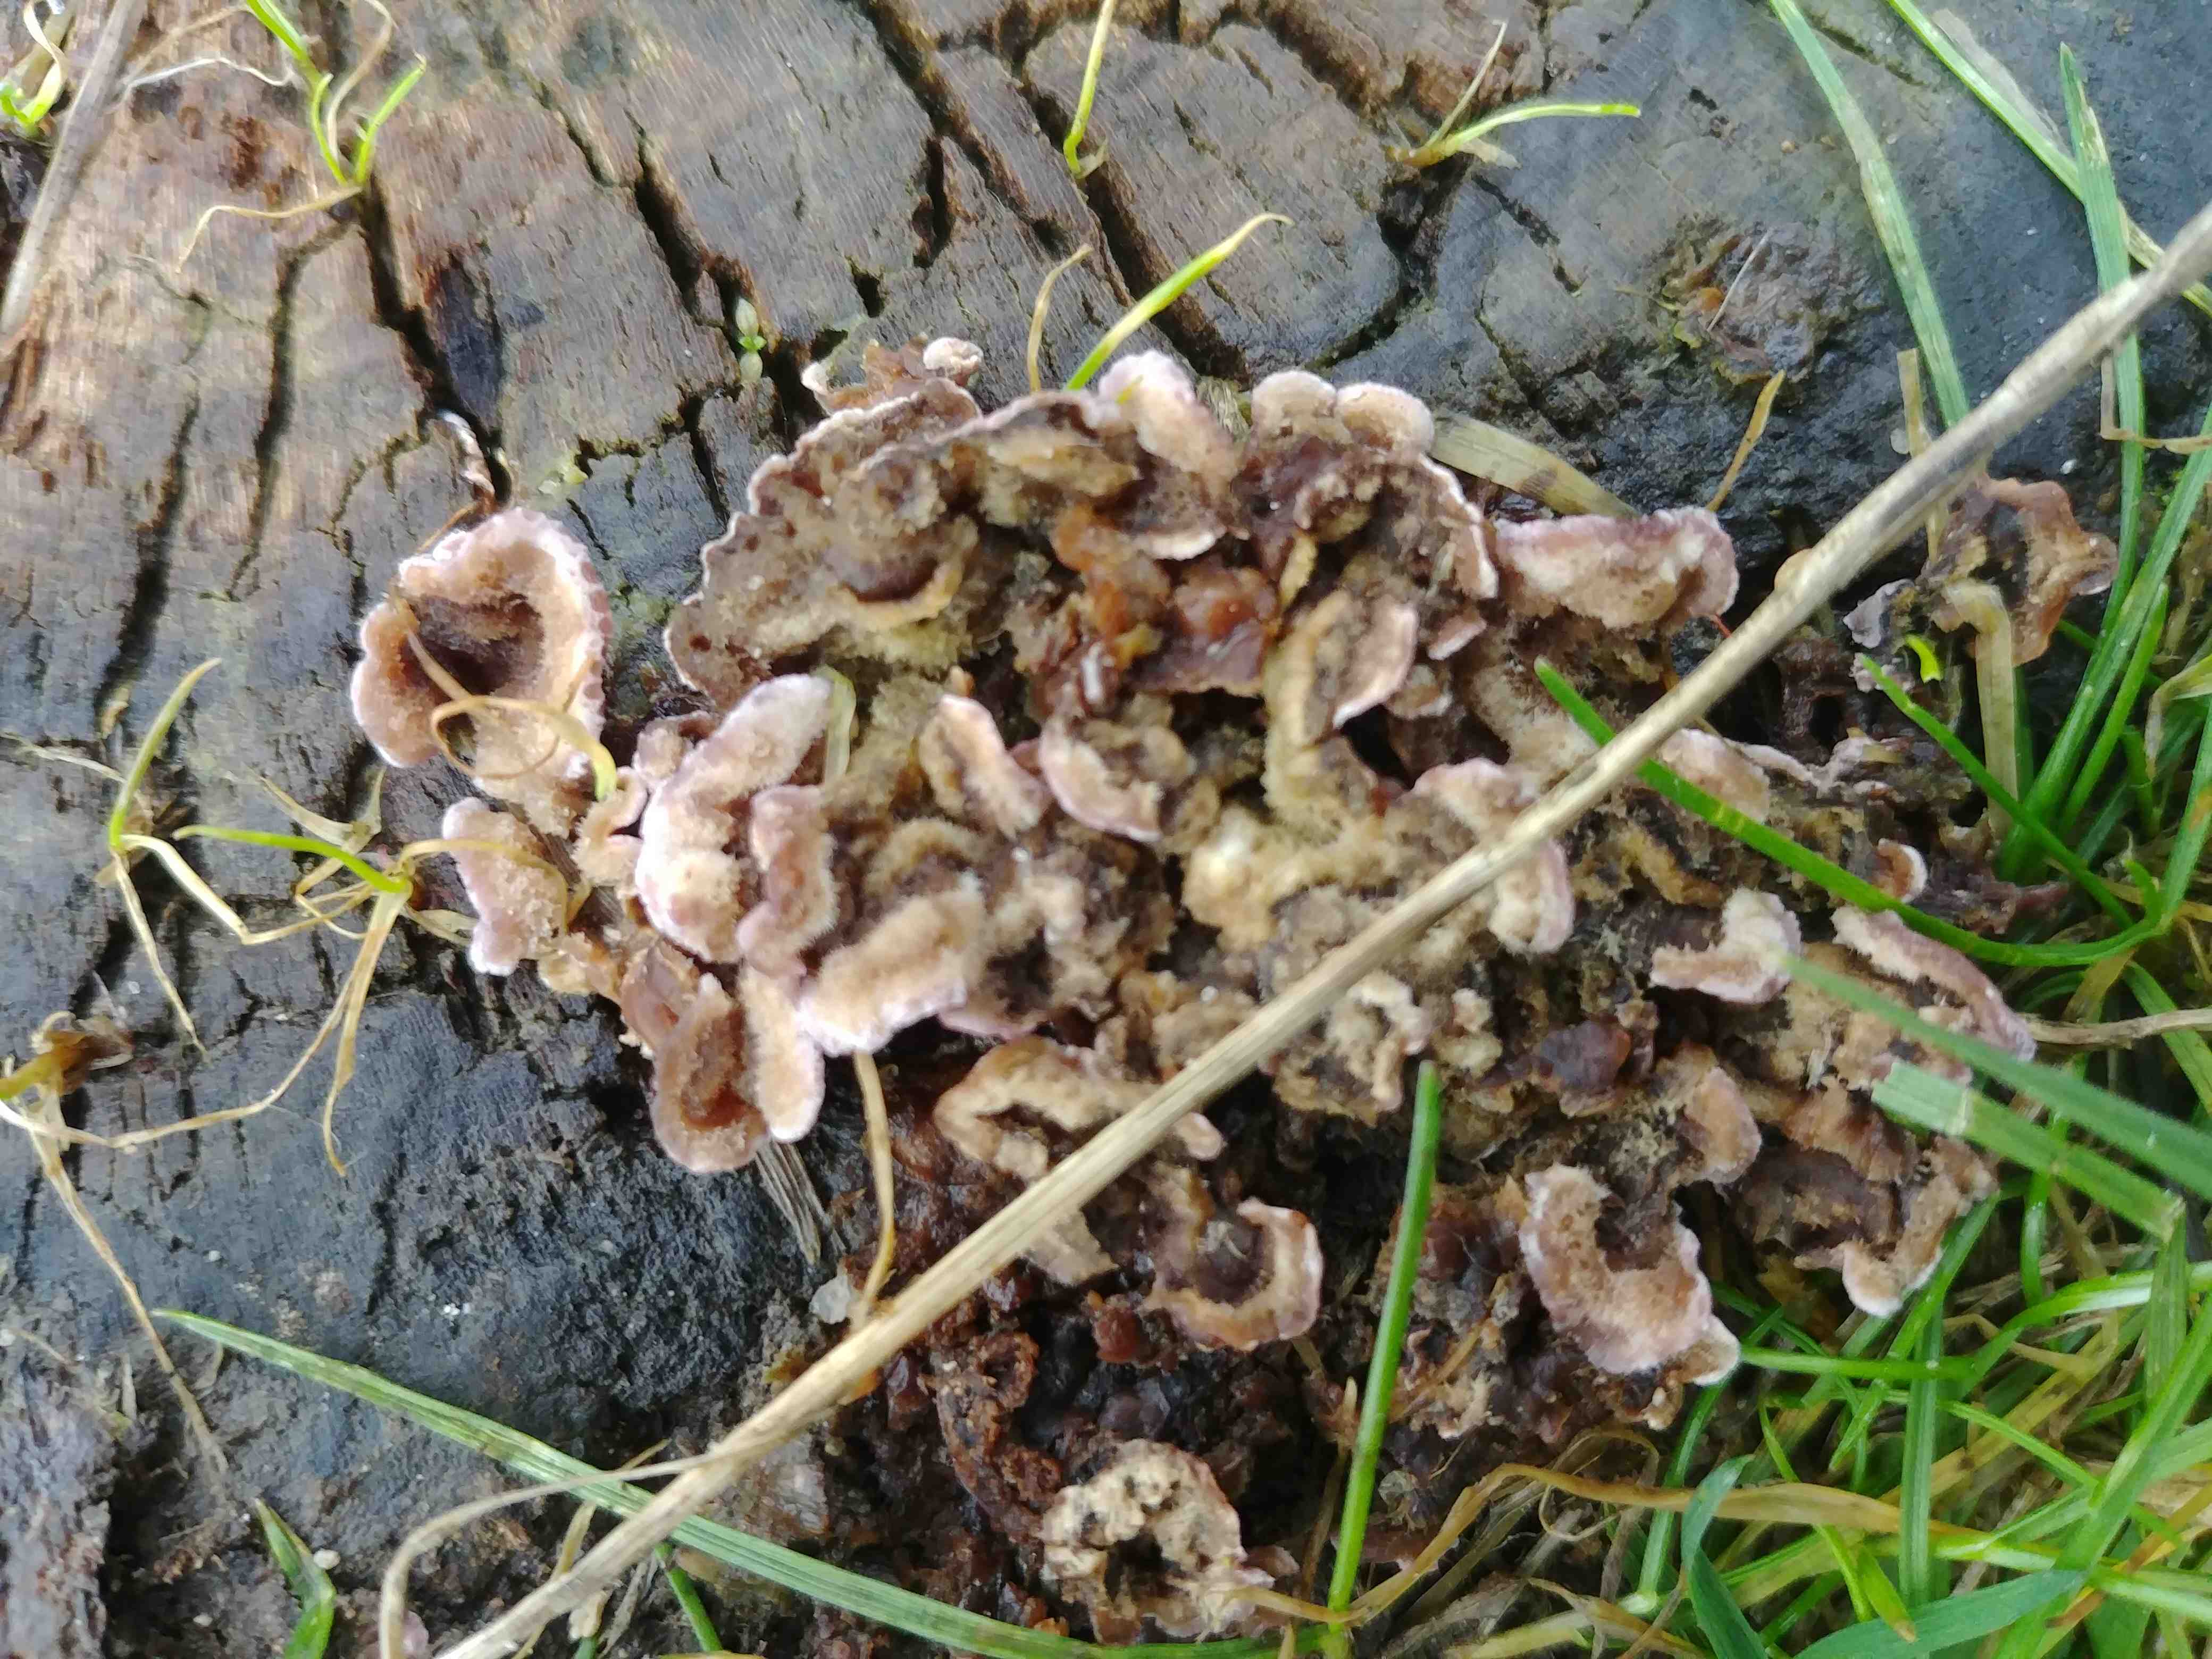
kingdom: Fungi
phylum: Basidiomycota
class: Agaricomycetes
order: Agaricales
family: Cyphellaceae
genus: Chondrostereum
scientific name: Chondrostereum purpureum
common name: purpurlædersvamp
